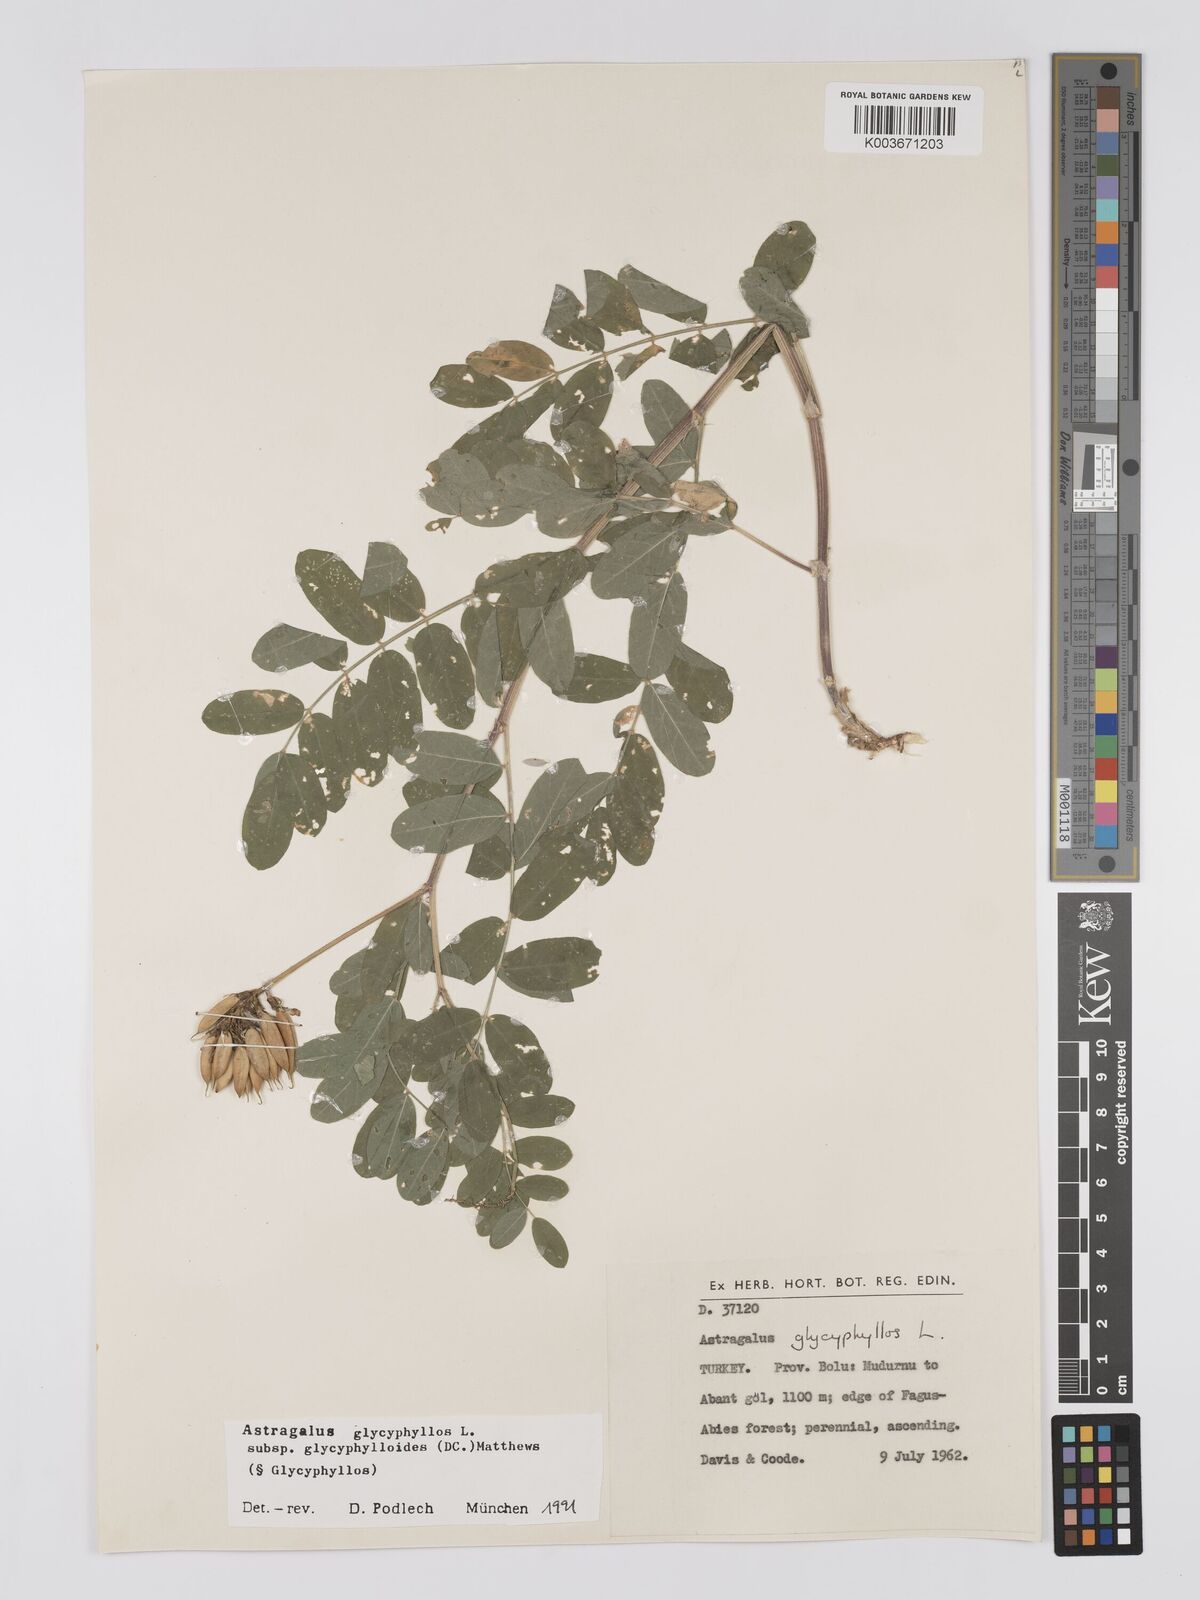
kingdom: Plantae
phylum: Tracheophyta
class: Magnoliopsida
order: Fabales
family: Fabaceae
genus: Astragalus
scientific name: Astragalus glycyphyllos
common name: Wild liquorice
